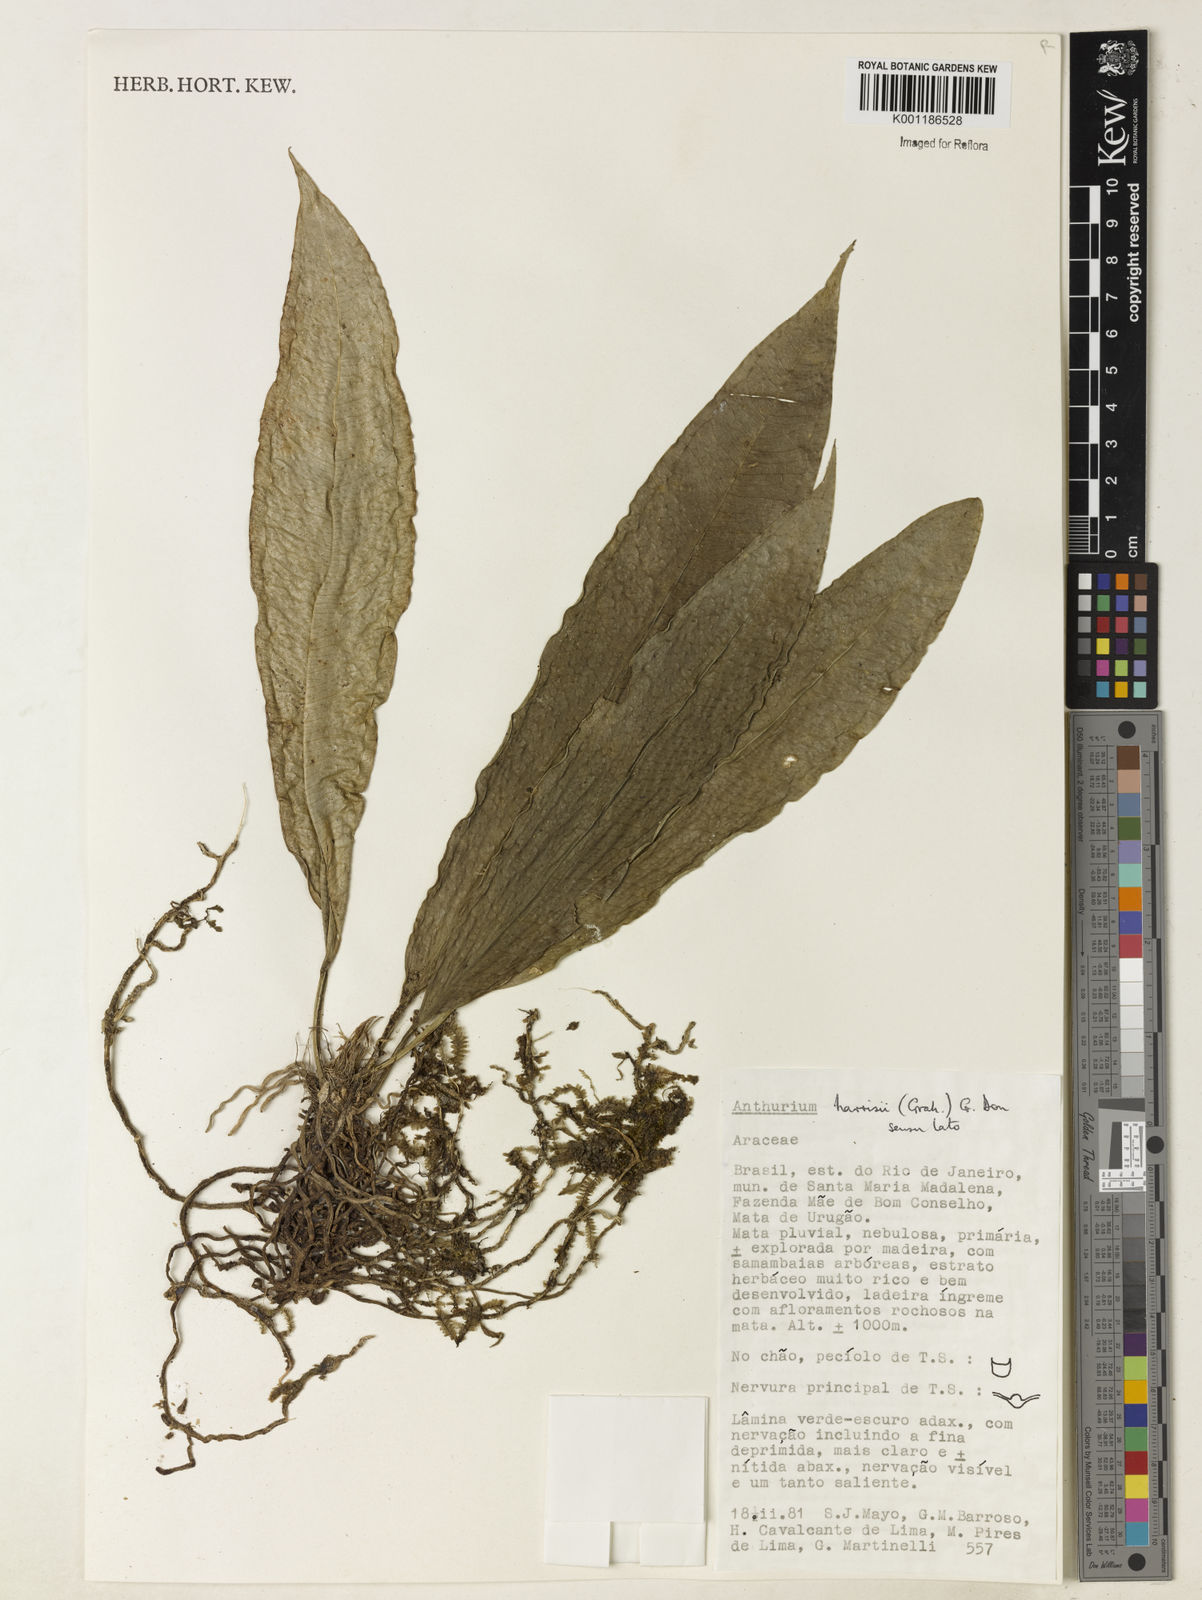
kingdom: Plantae
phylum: Tracheophyta
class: Liliopsida
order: Alismatales
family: Araceae
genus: Anthurium
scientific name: Anthurium harrisii
